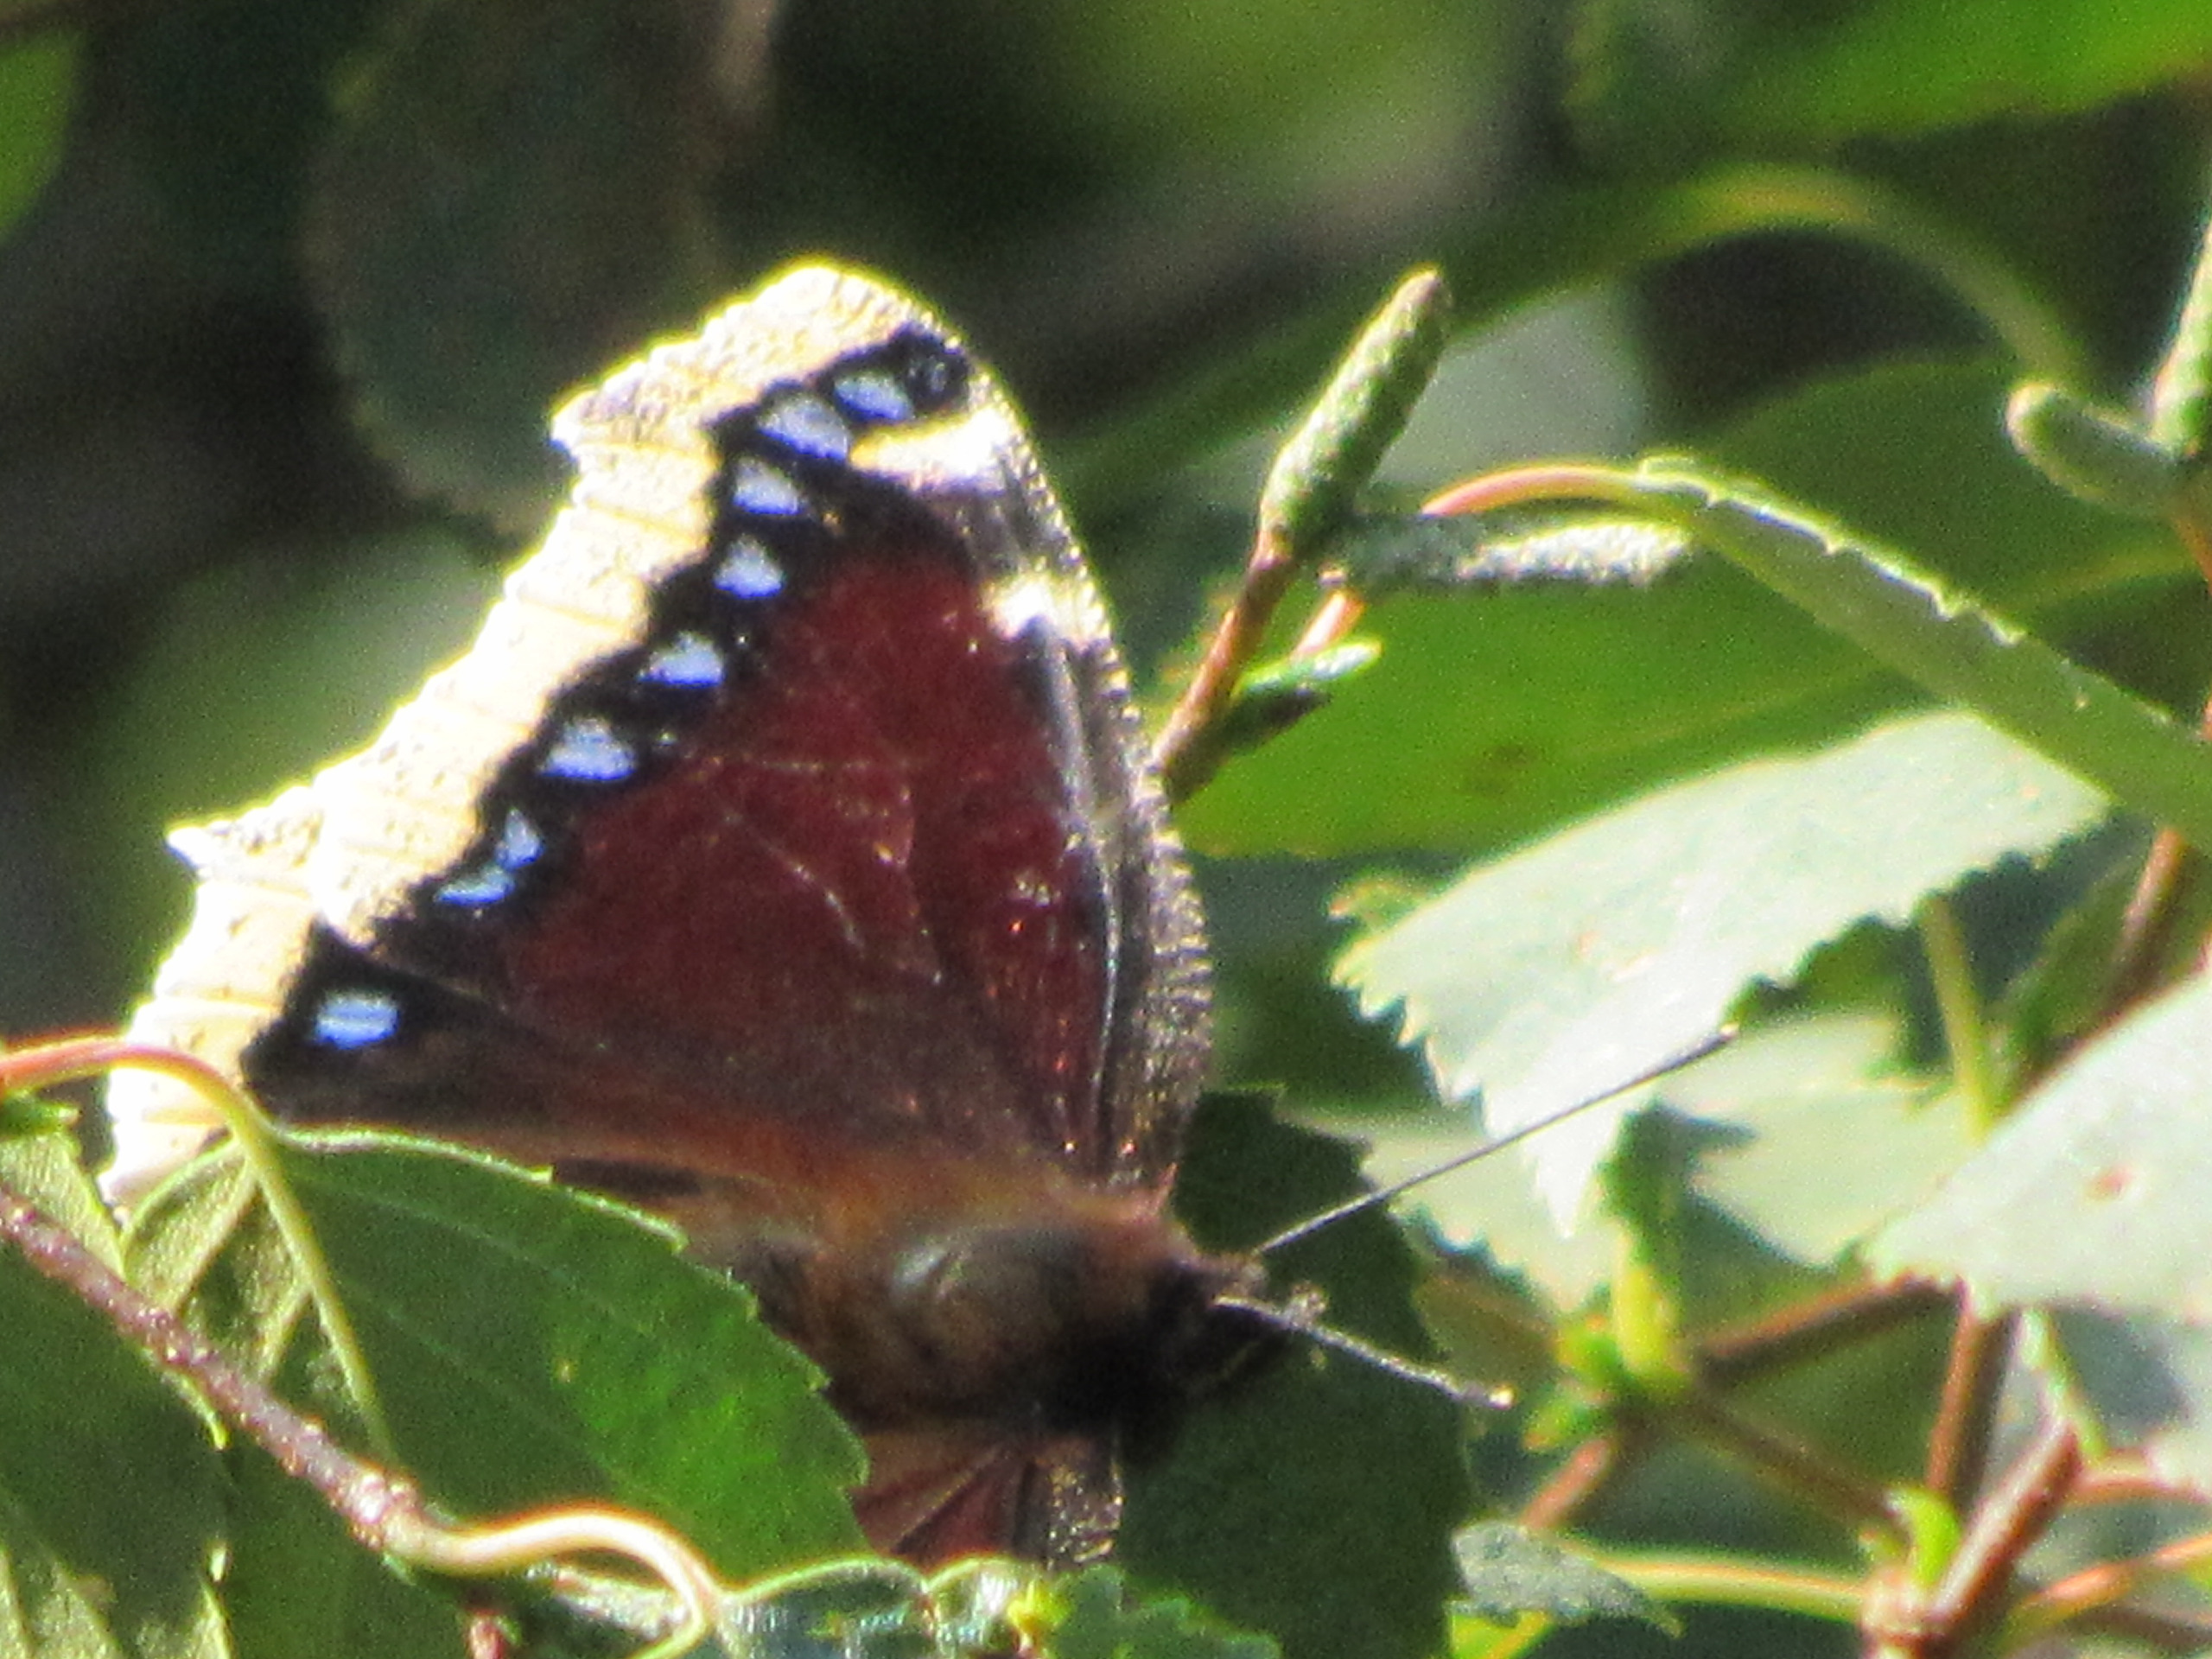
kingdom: Animalia
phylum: Arthropoda
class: Insecta
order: Lepidoptera
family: Nymphalidae
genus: Nymphalis
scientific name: Nymphalis antiopa
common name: Sørgekåbe
